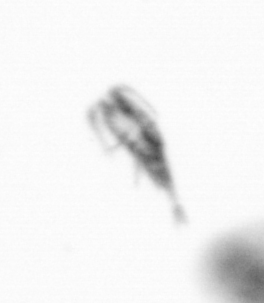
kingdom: Animalia
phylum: Arthropoda
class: Copepoda
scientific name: Copepoda
